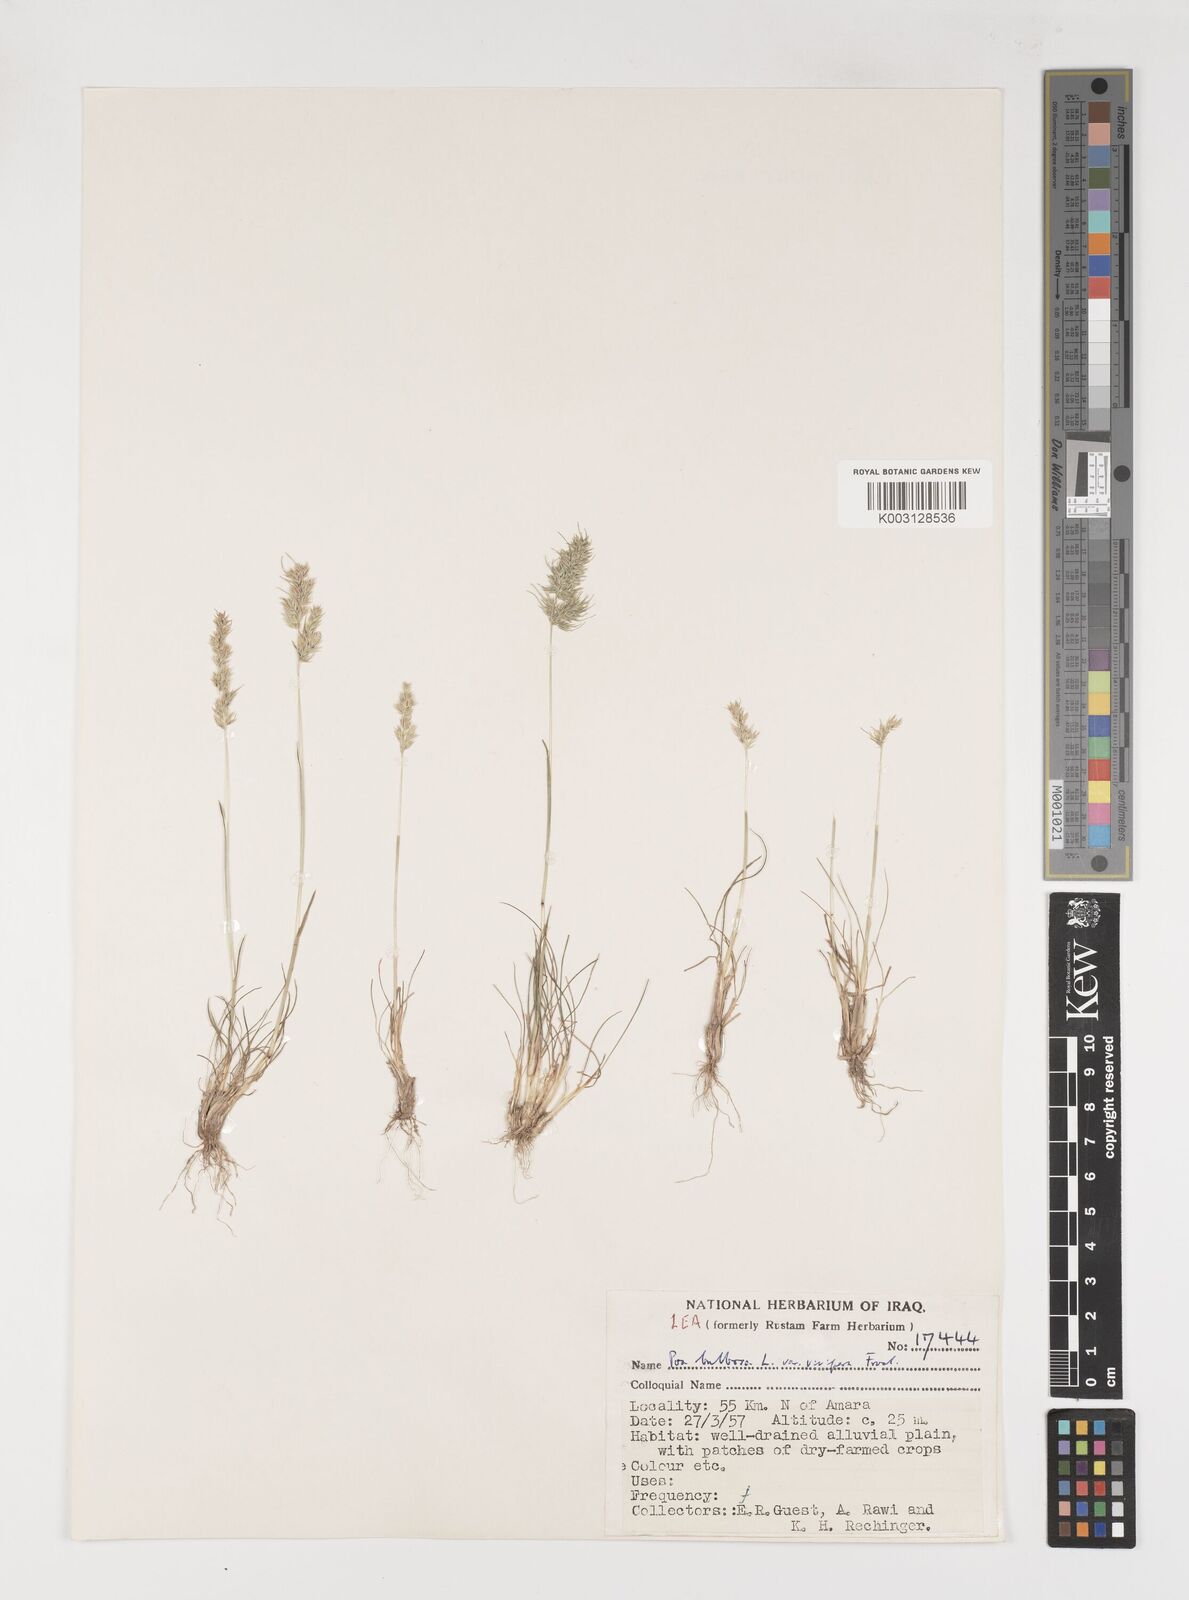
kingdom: Plantae
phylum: Tracheophyta
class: Liliopsida
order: Poales
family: Poaceae
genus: Poa
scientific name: Poa sinaica
